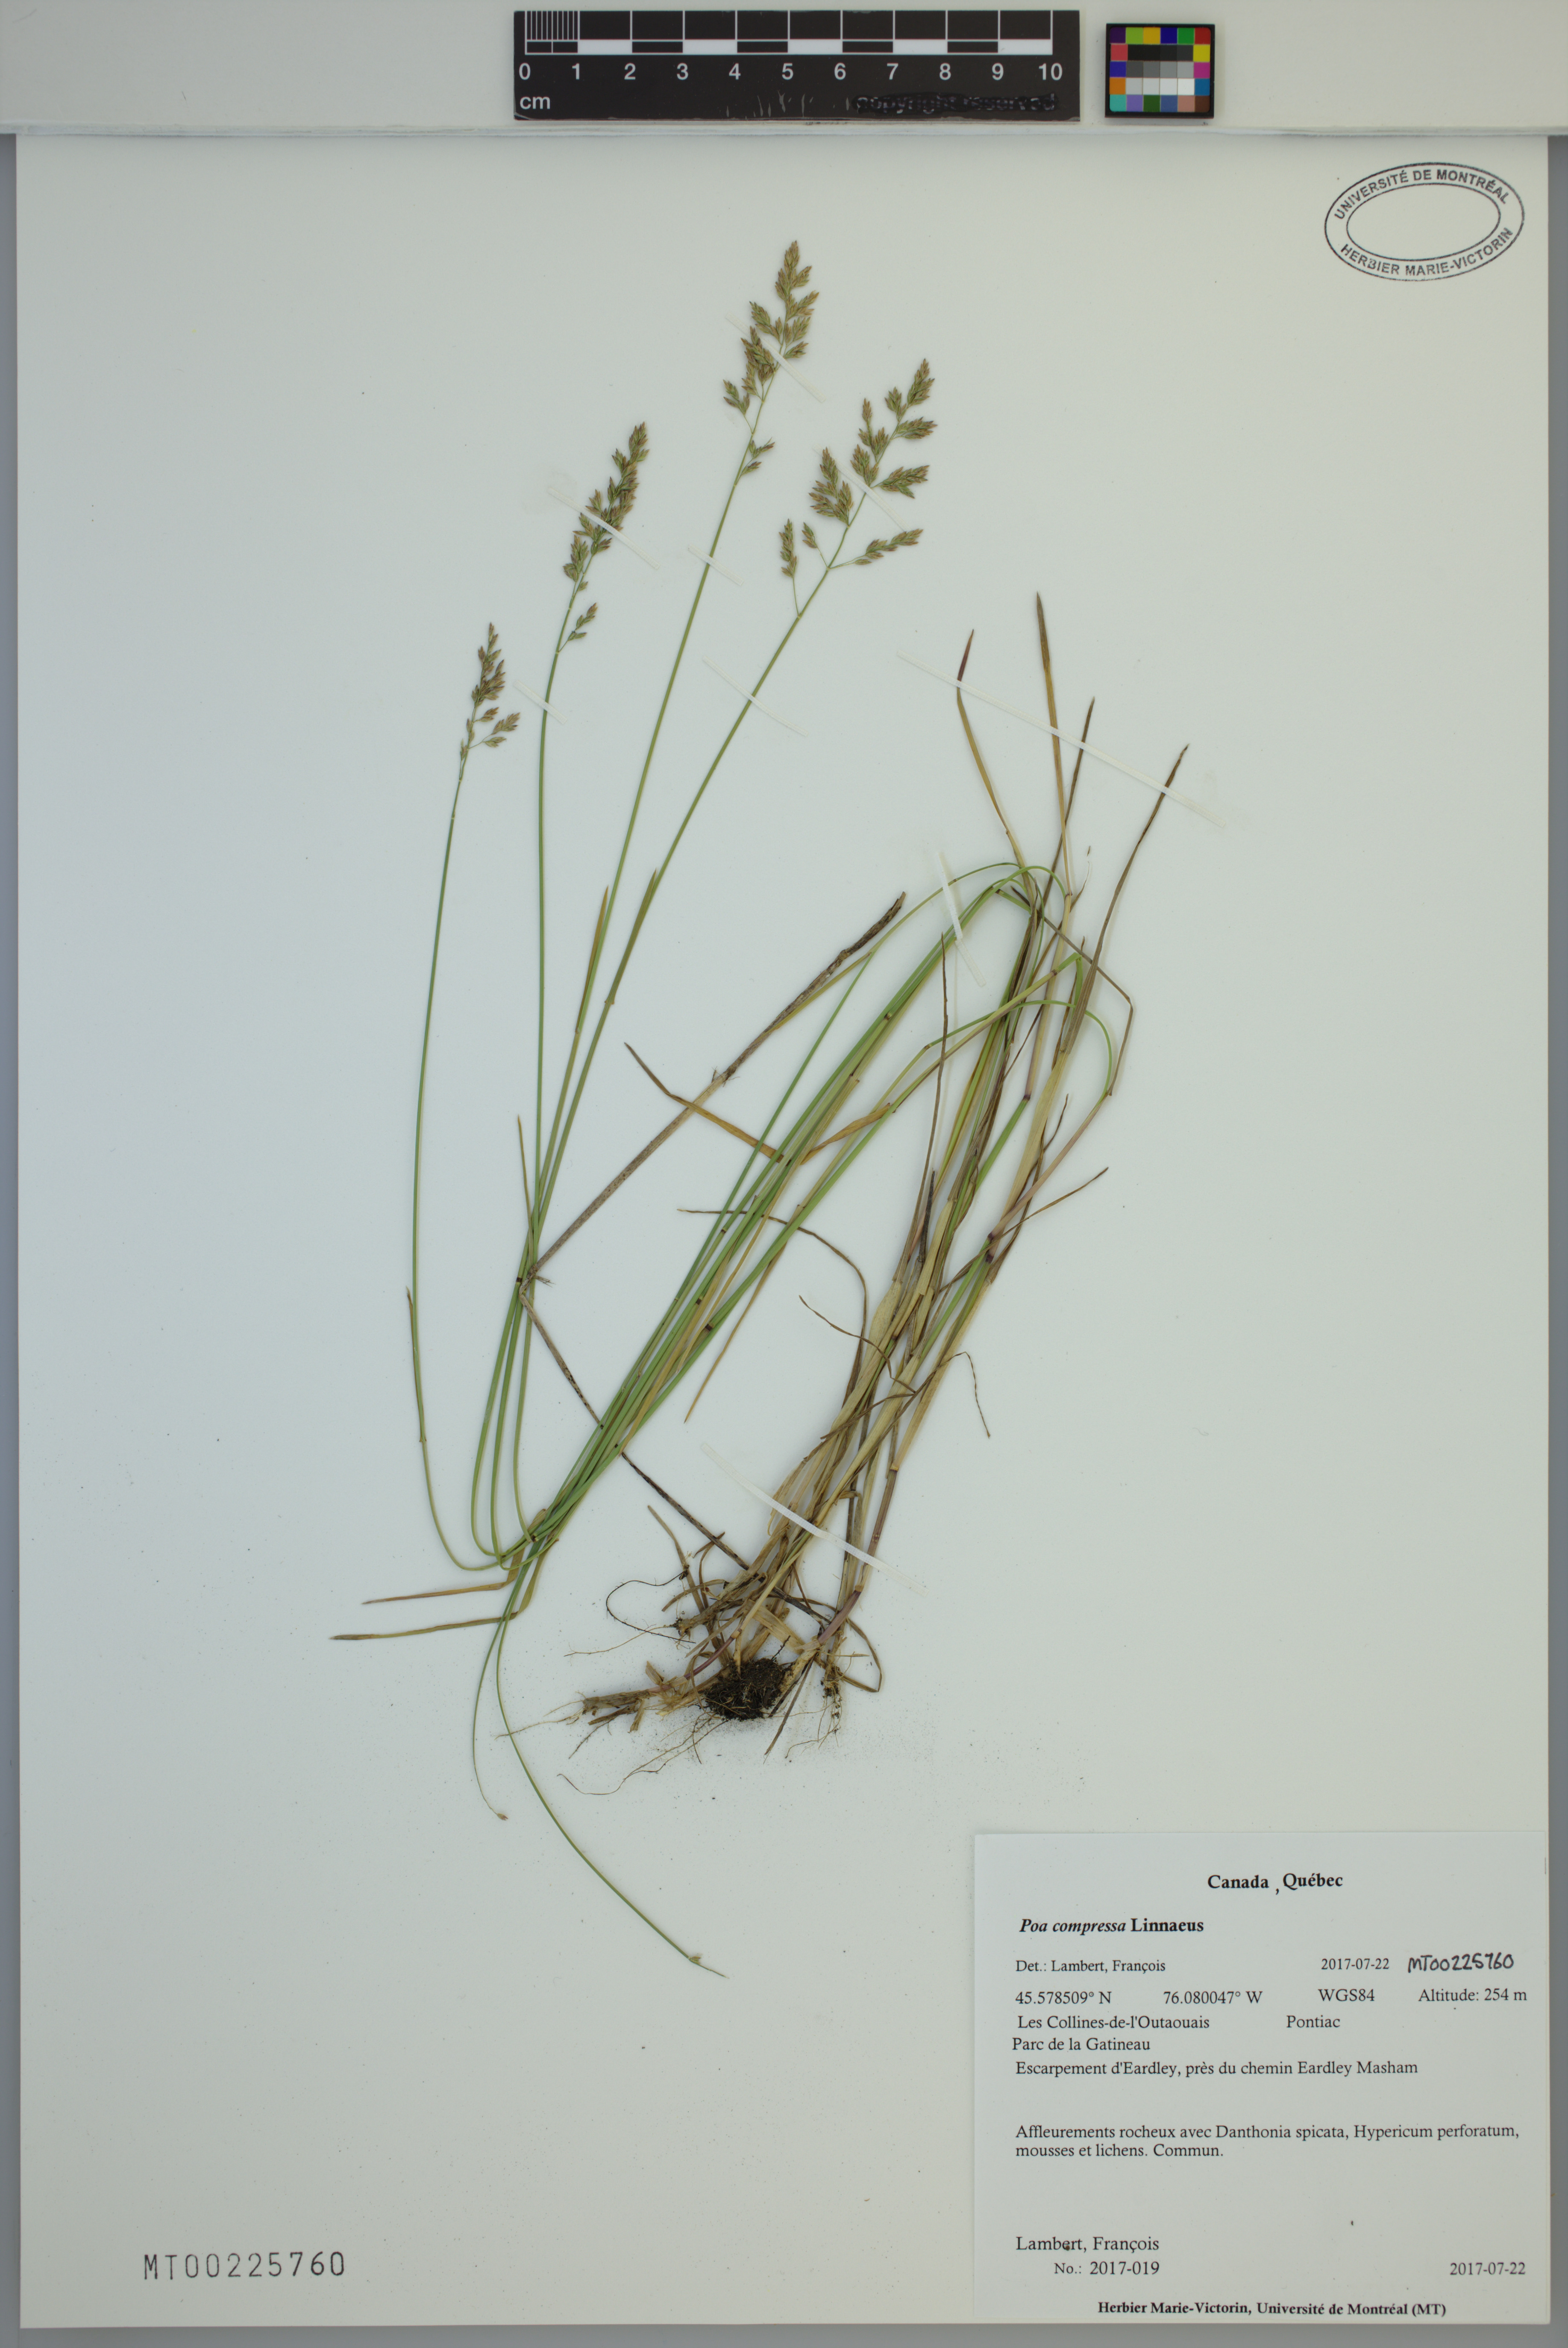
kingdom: Plantae
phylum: Tracheophyta
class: Liliopsida
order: Poales
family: Poaceae
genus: Poa
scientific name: Poa compressa
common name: Canada bluegrass
